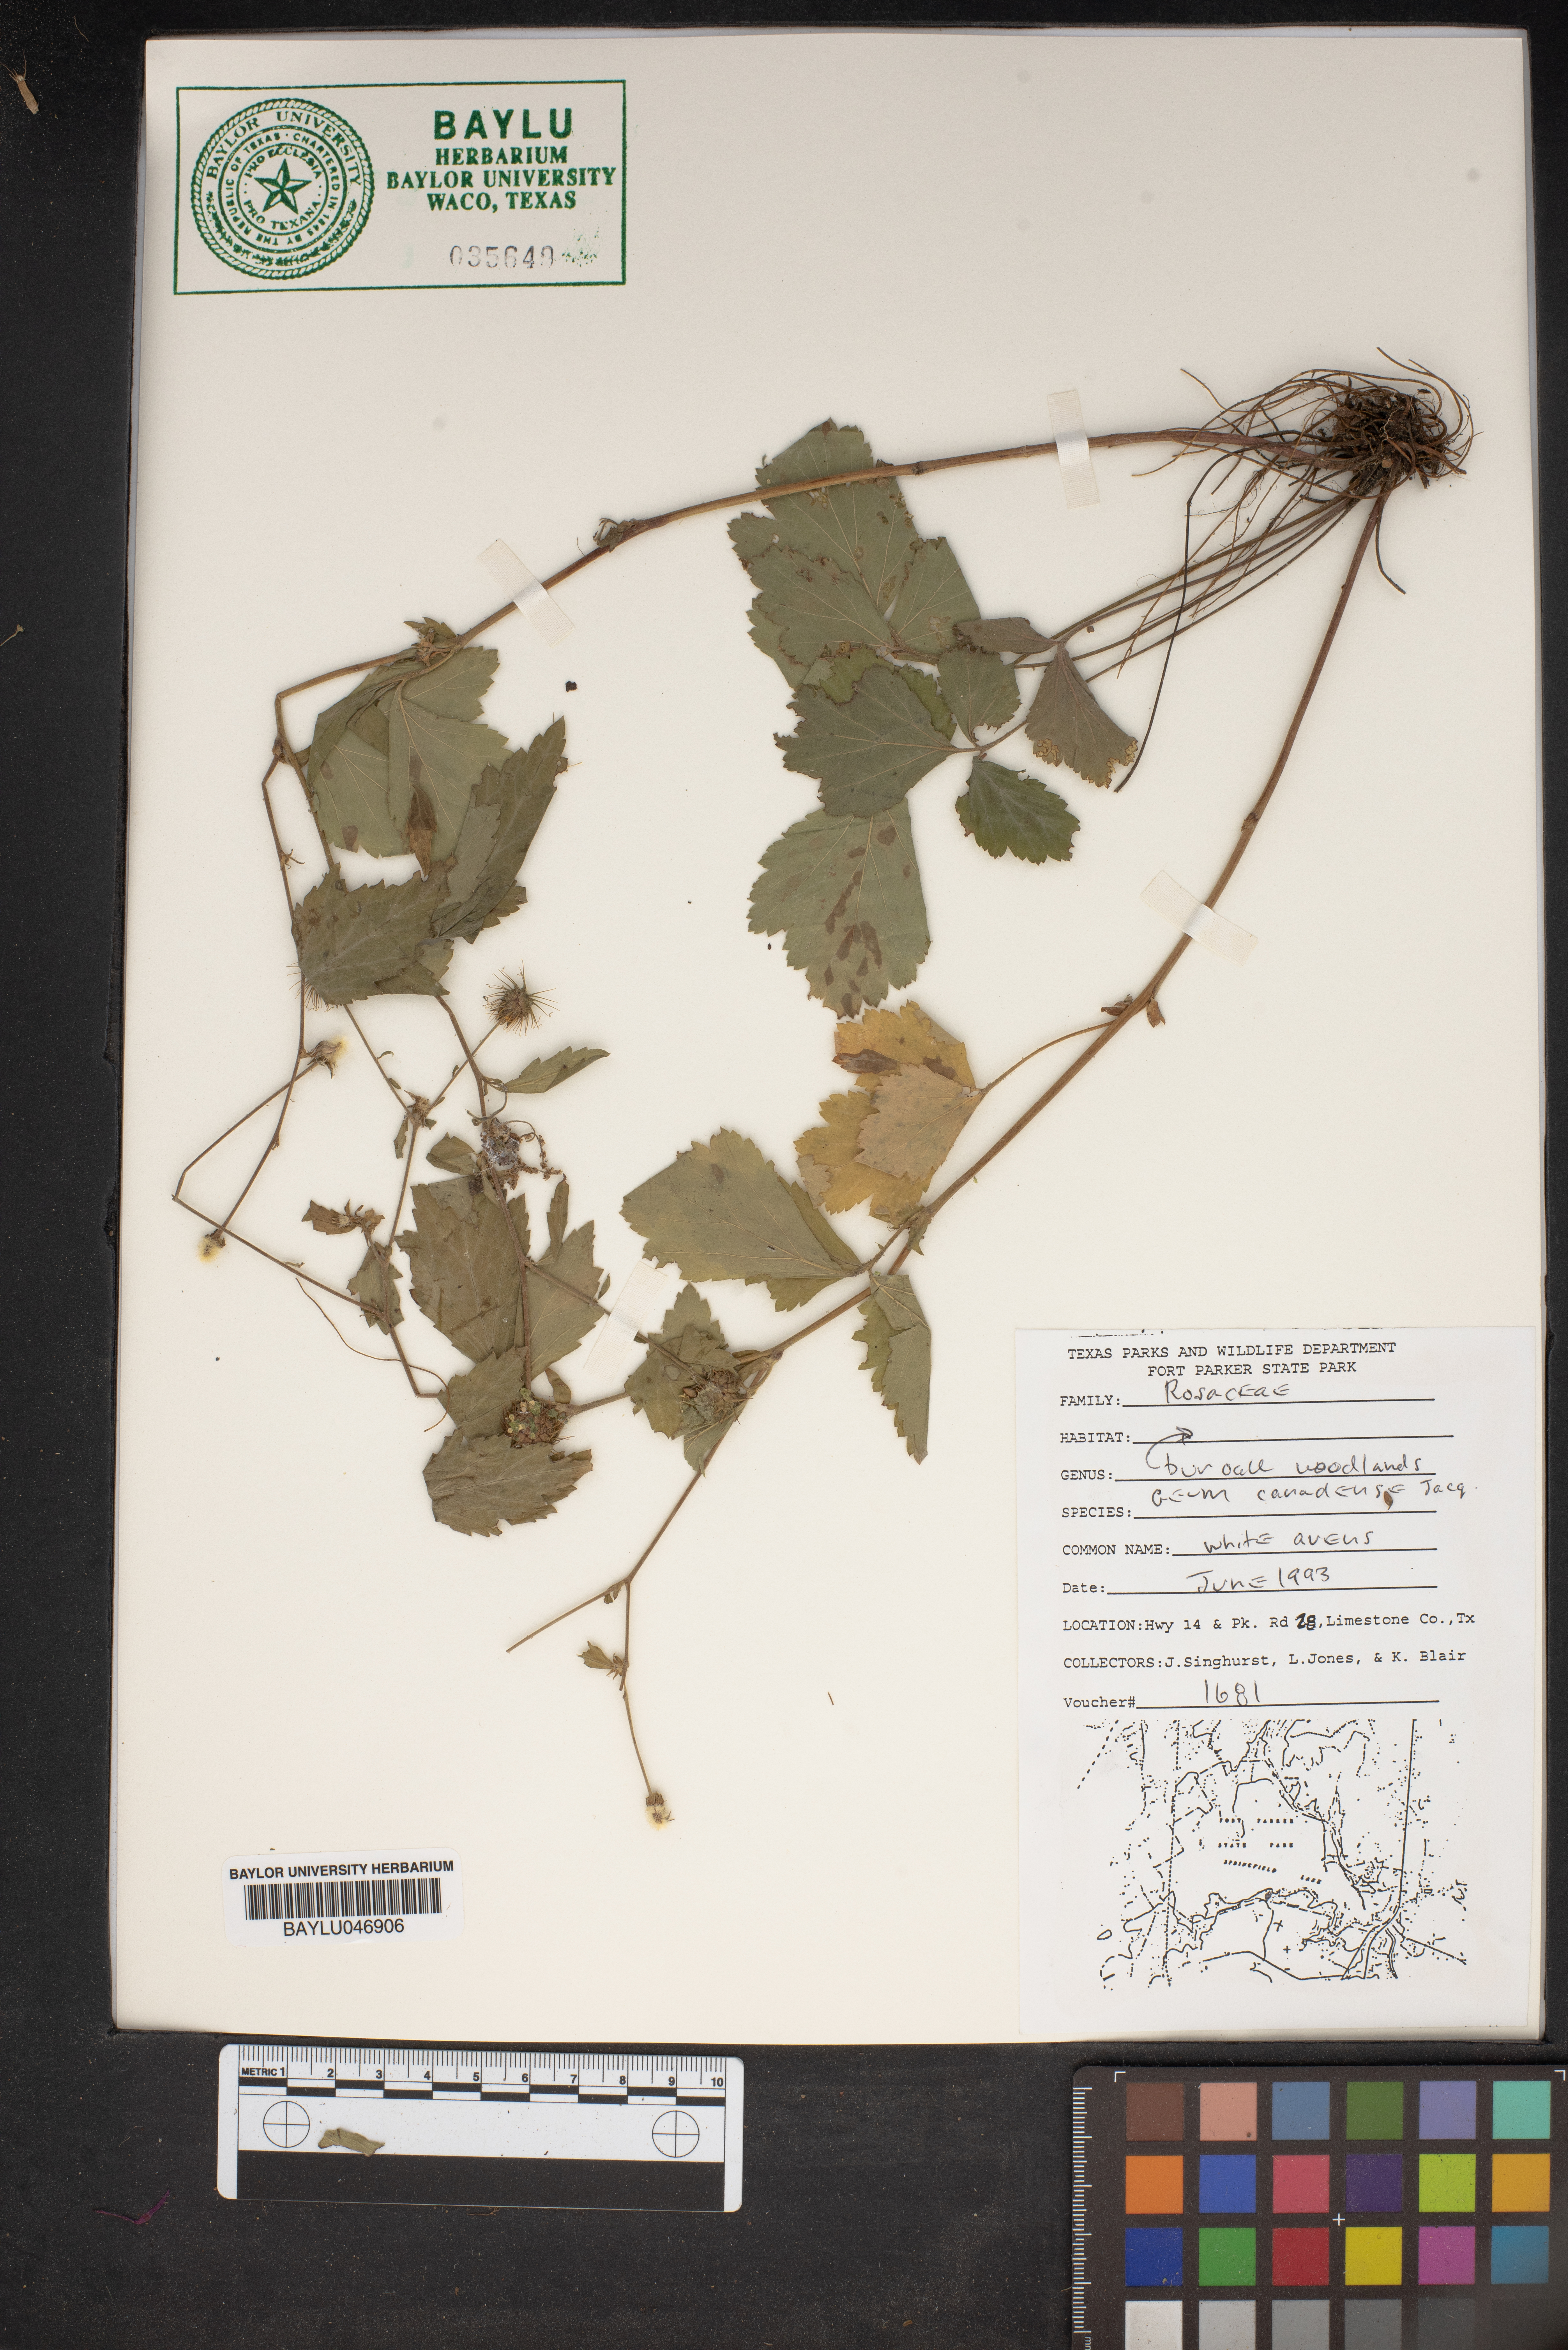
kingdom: Plantae
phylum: Tracheophyta
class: Magnoliopsida
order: Rosales
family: Rosaceae
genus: Geum
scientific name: Geum canadense
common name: White avens
